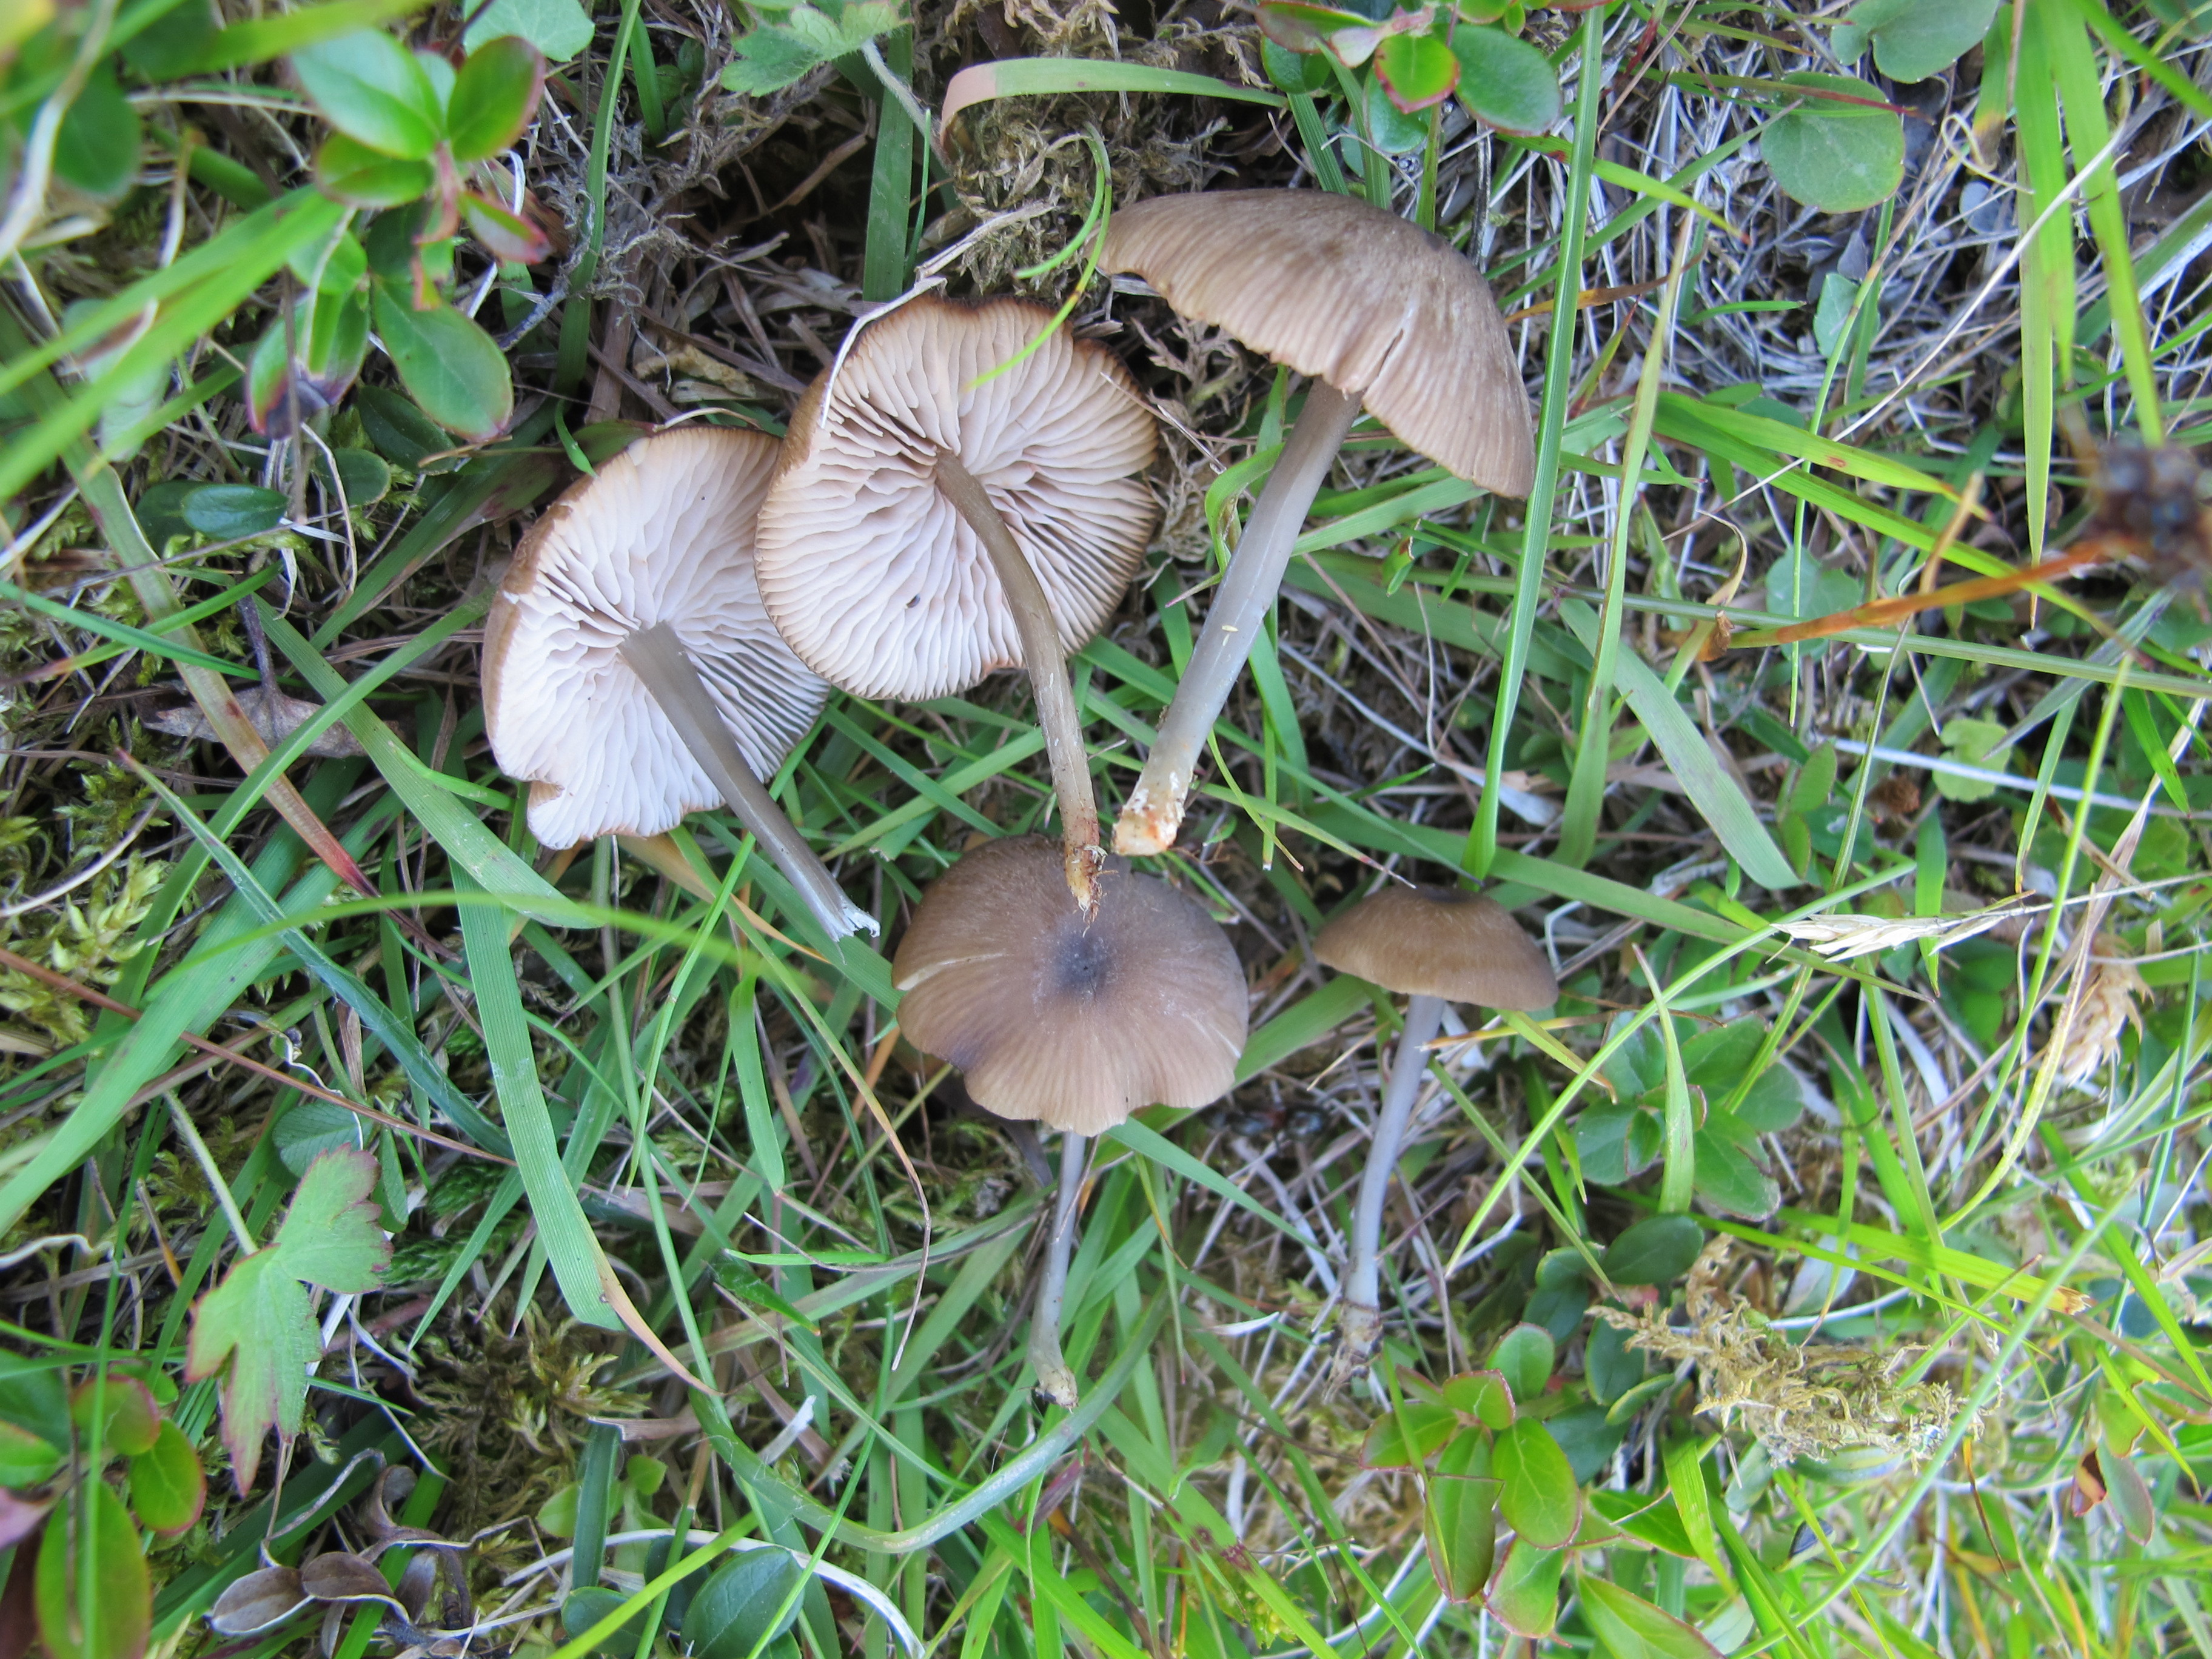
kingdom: Fungi
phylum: Basidiomycota
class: Agaricomycetes
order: Agaricales
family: Entolomataceae
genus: Entoloma
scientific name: Entoloma asprellum
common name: Roughened pinkgill
